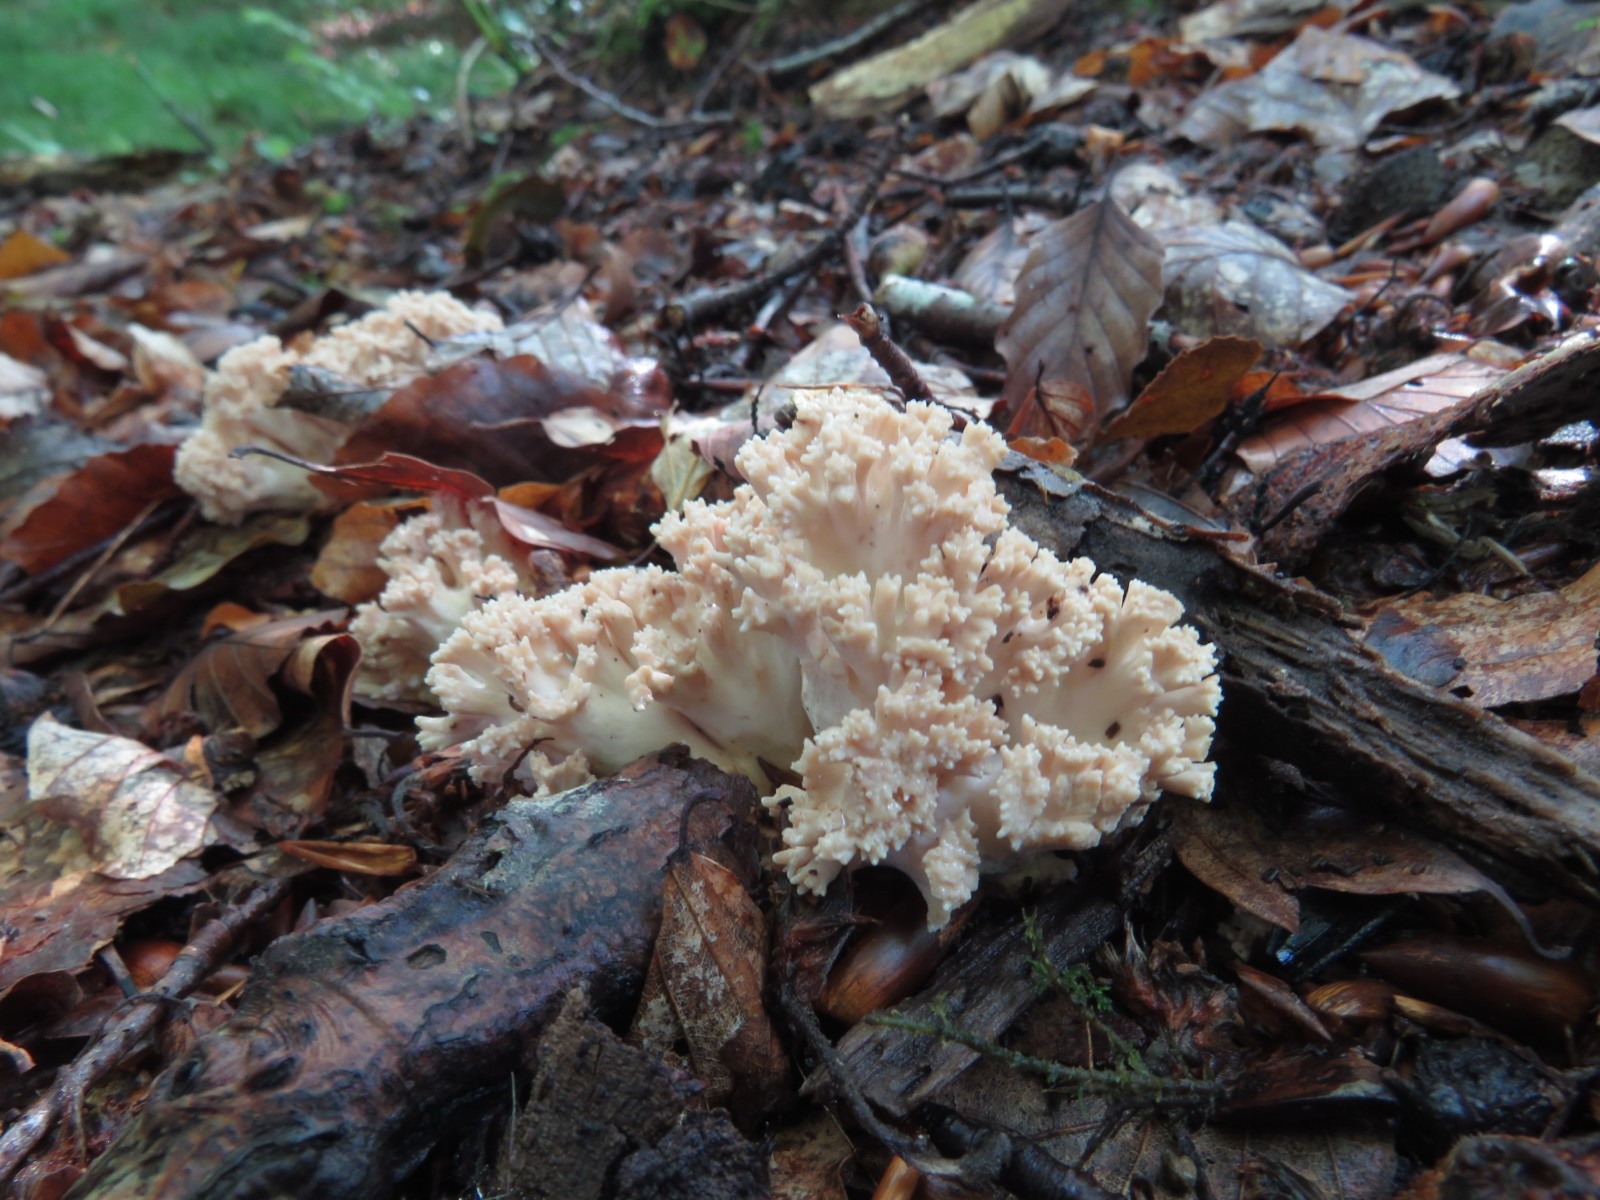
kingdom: Fungi
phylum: Basidiomycota
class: Agaricomycetes
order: Gomphales
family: Gomphaceae
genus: Ramaria
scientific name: Ramaria
